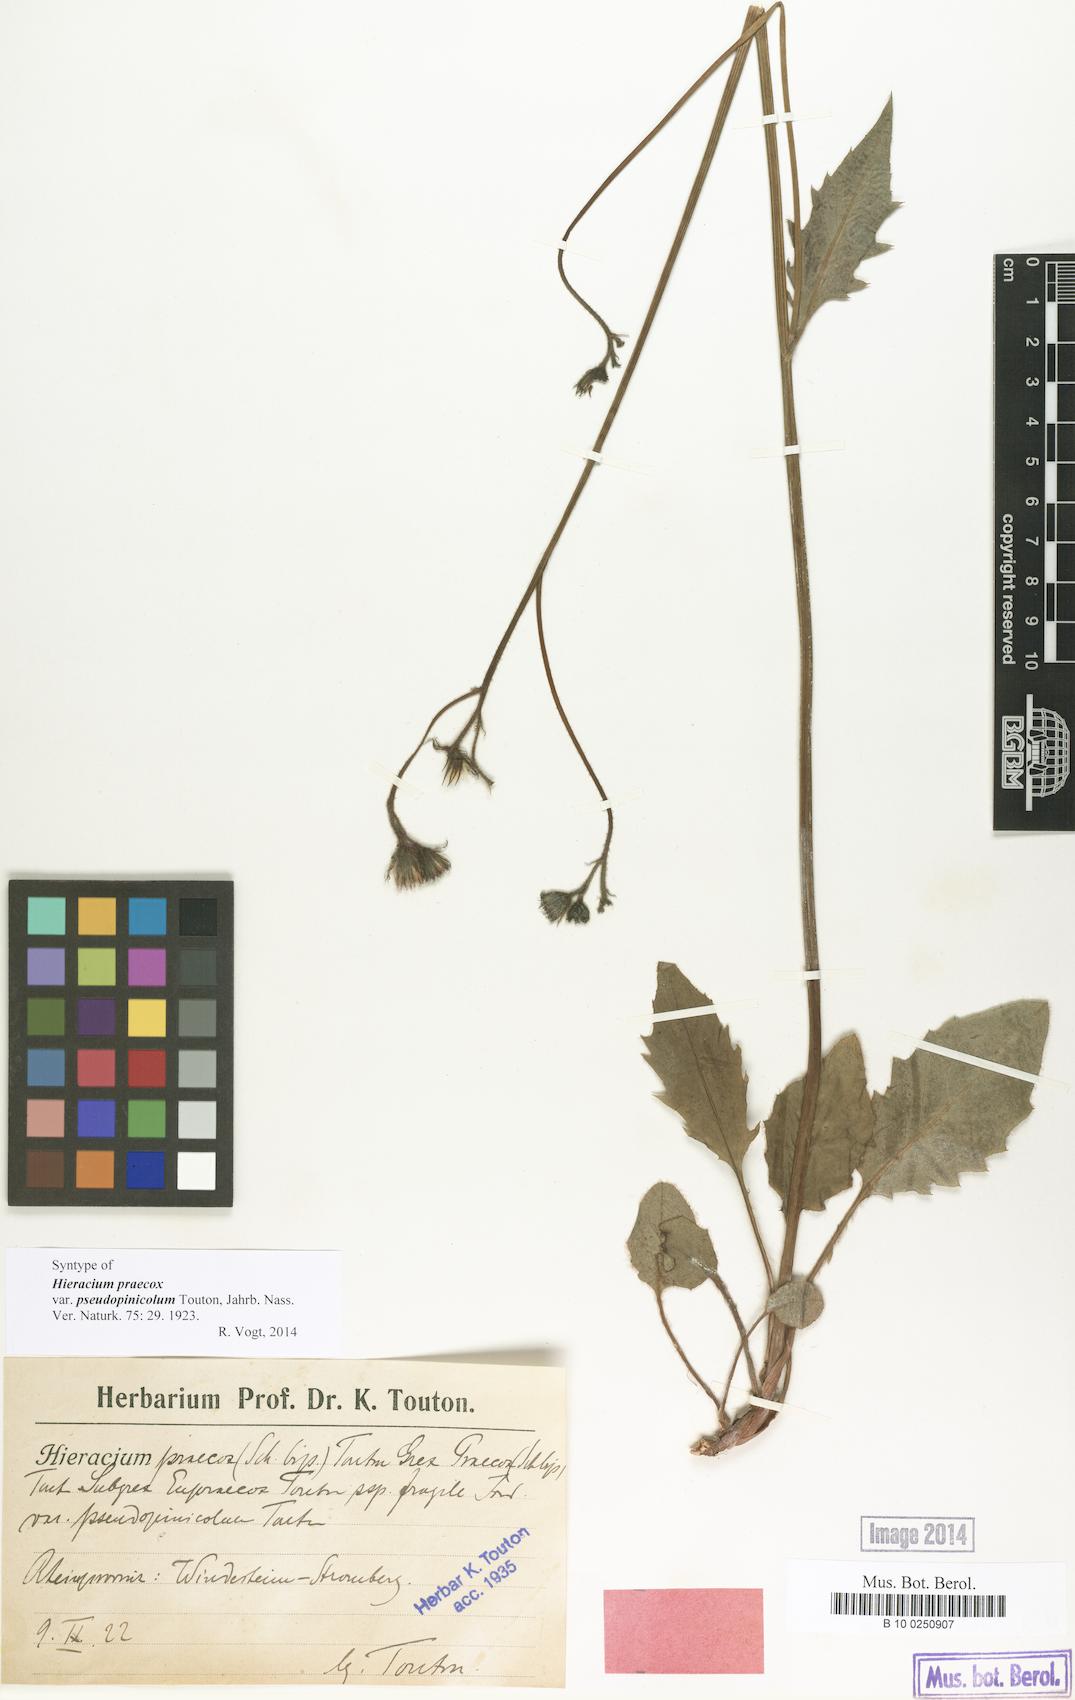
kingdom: Plantae
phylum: Tracheophyta
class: Magnoliopsida
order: Asterales
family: Asteraceae
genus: Hieracium
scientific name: Hieracium praecox
